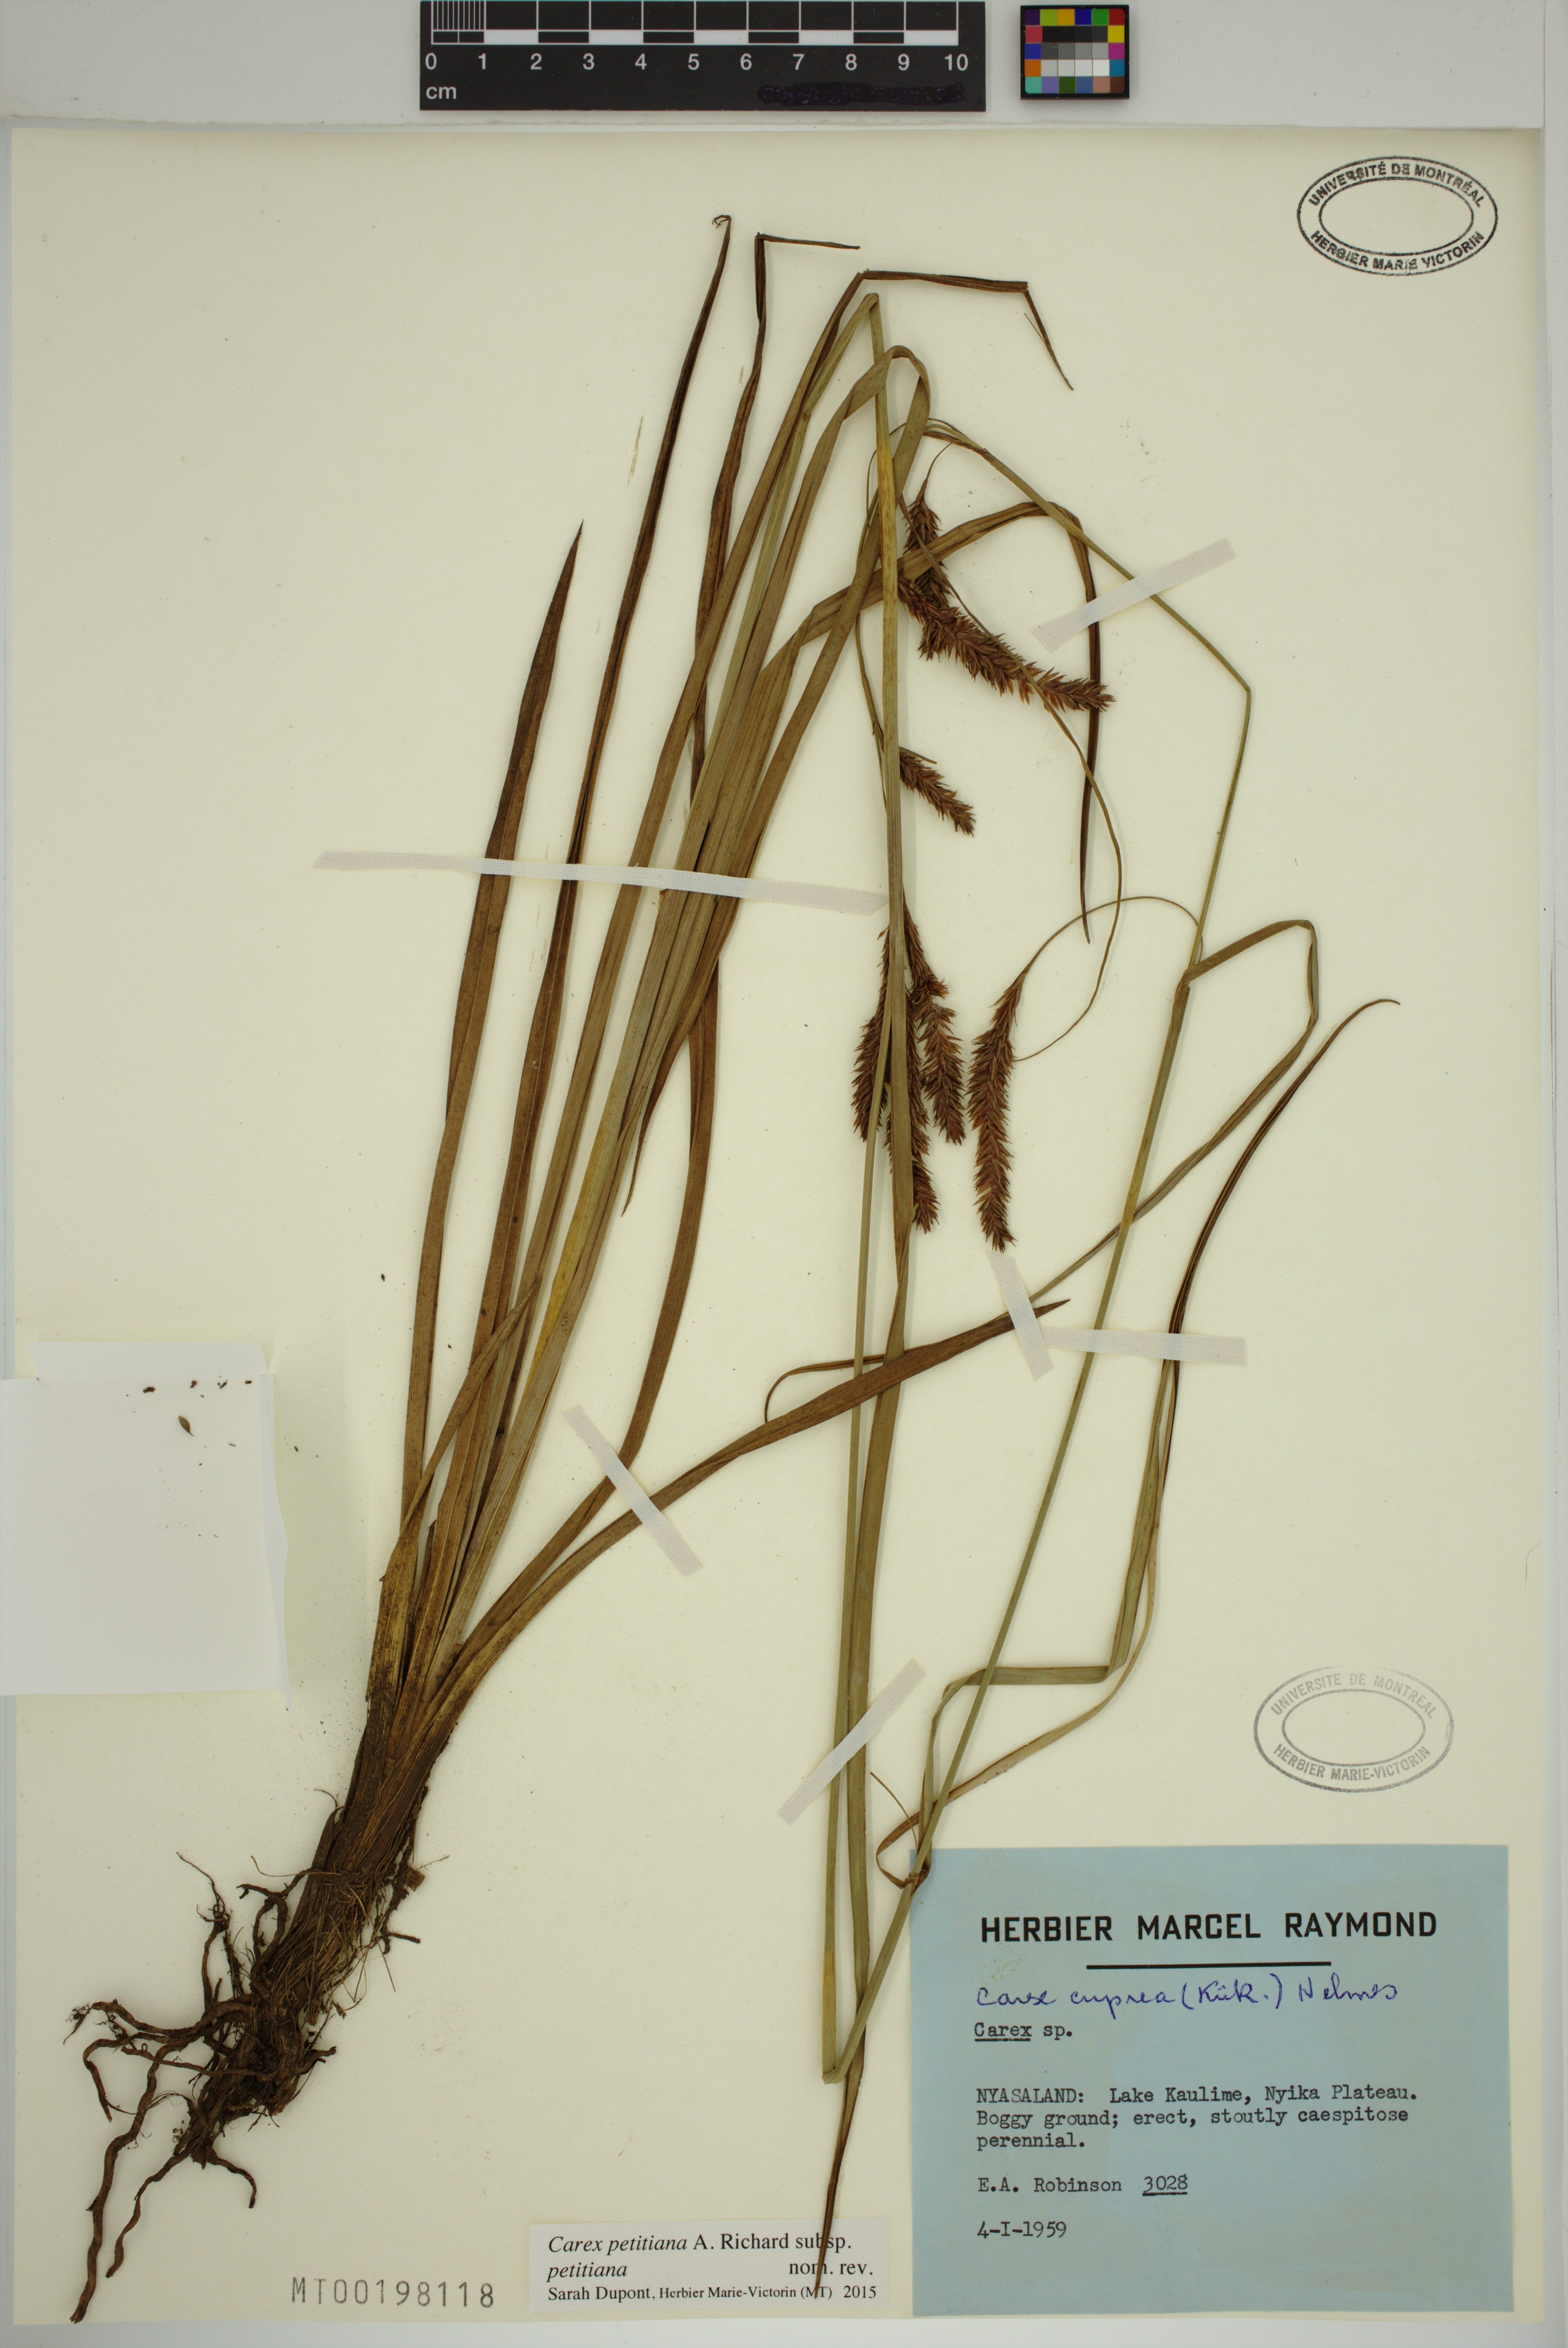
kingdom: Plantae
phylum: Tracheophyta
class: Liliopsida
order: Poales
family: Cyperaceae
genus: Carex
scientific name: Carex petitiana
